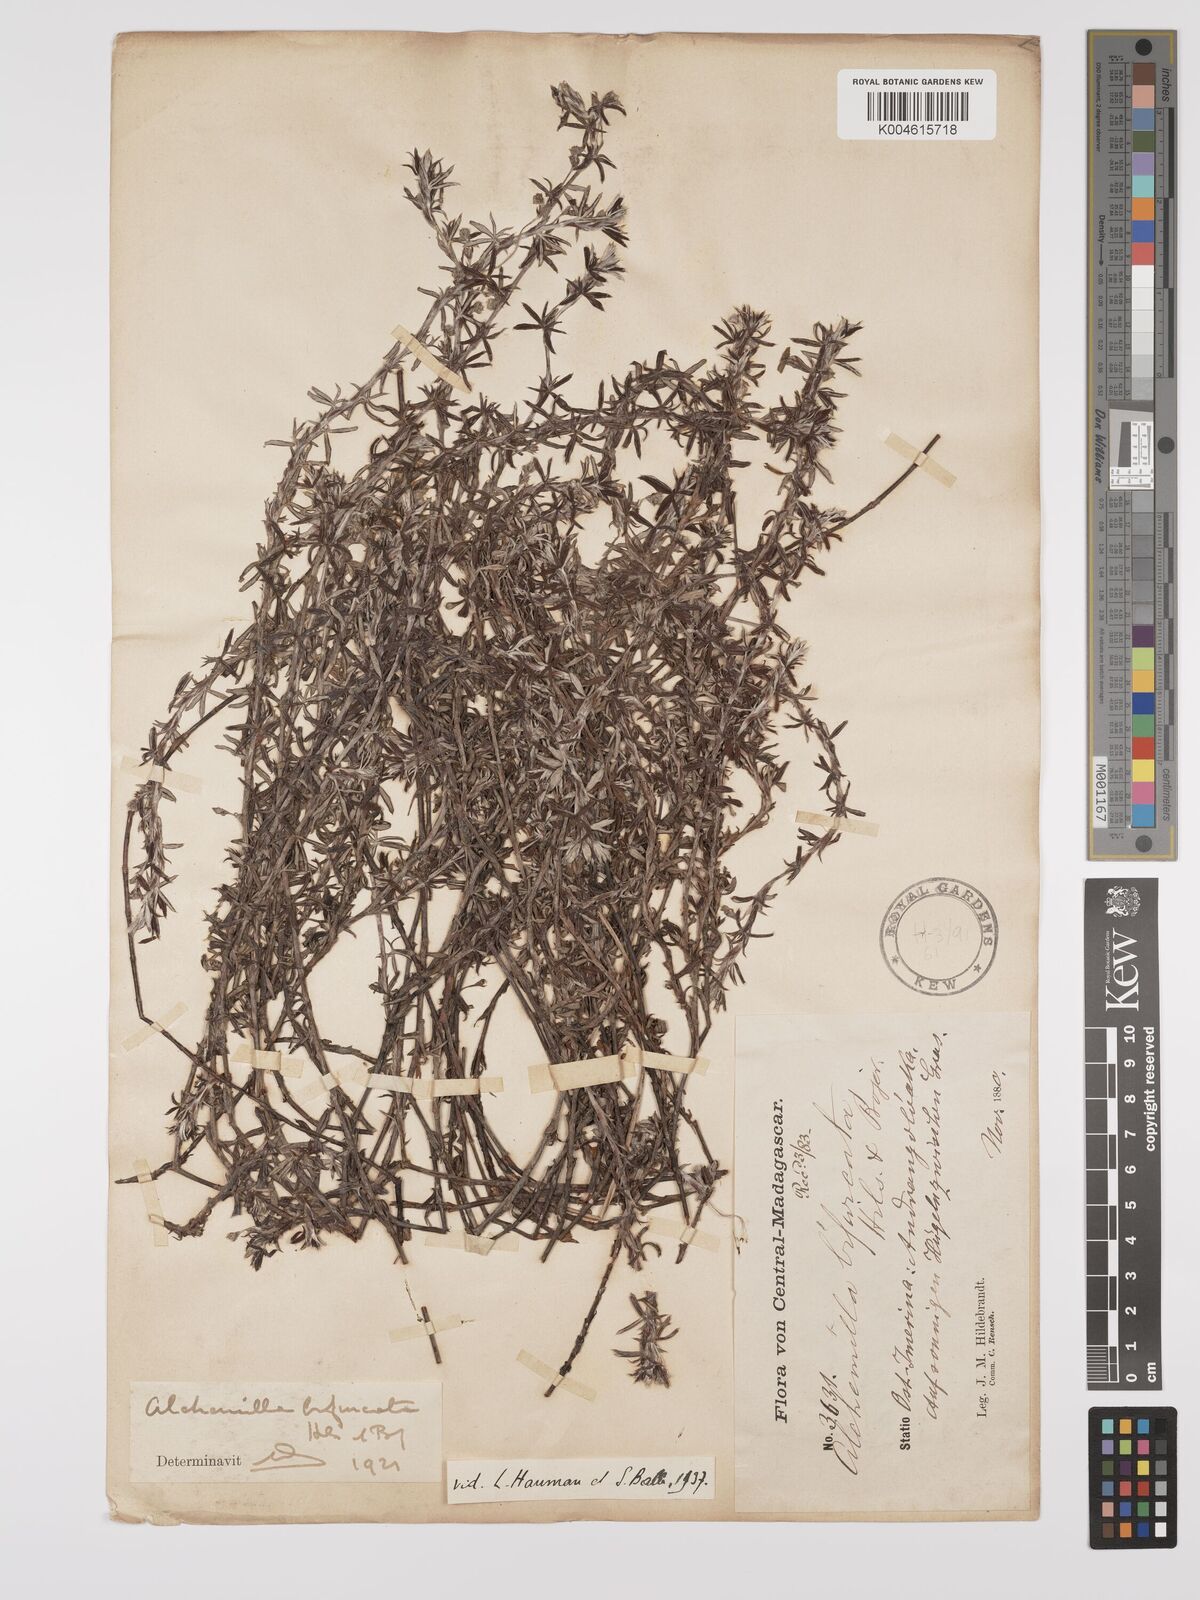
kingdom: Plantae
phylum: Tracheophyta
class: Magnoliopsida
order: Rosales
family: Rosaceae
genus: Alchemilla
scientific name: Alchemilla bifurcata
